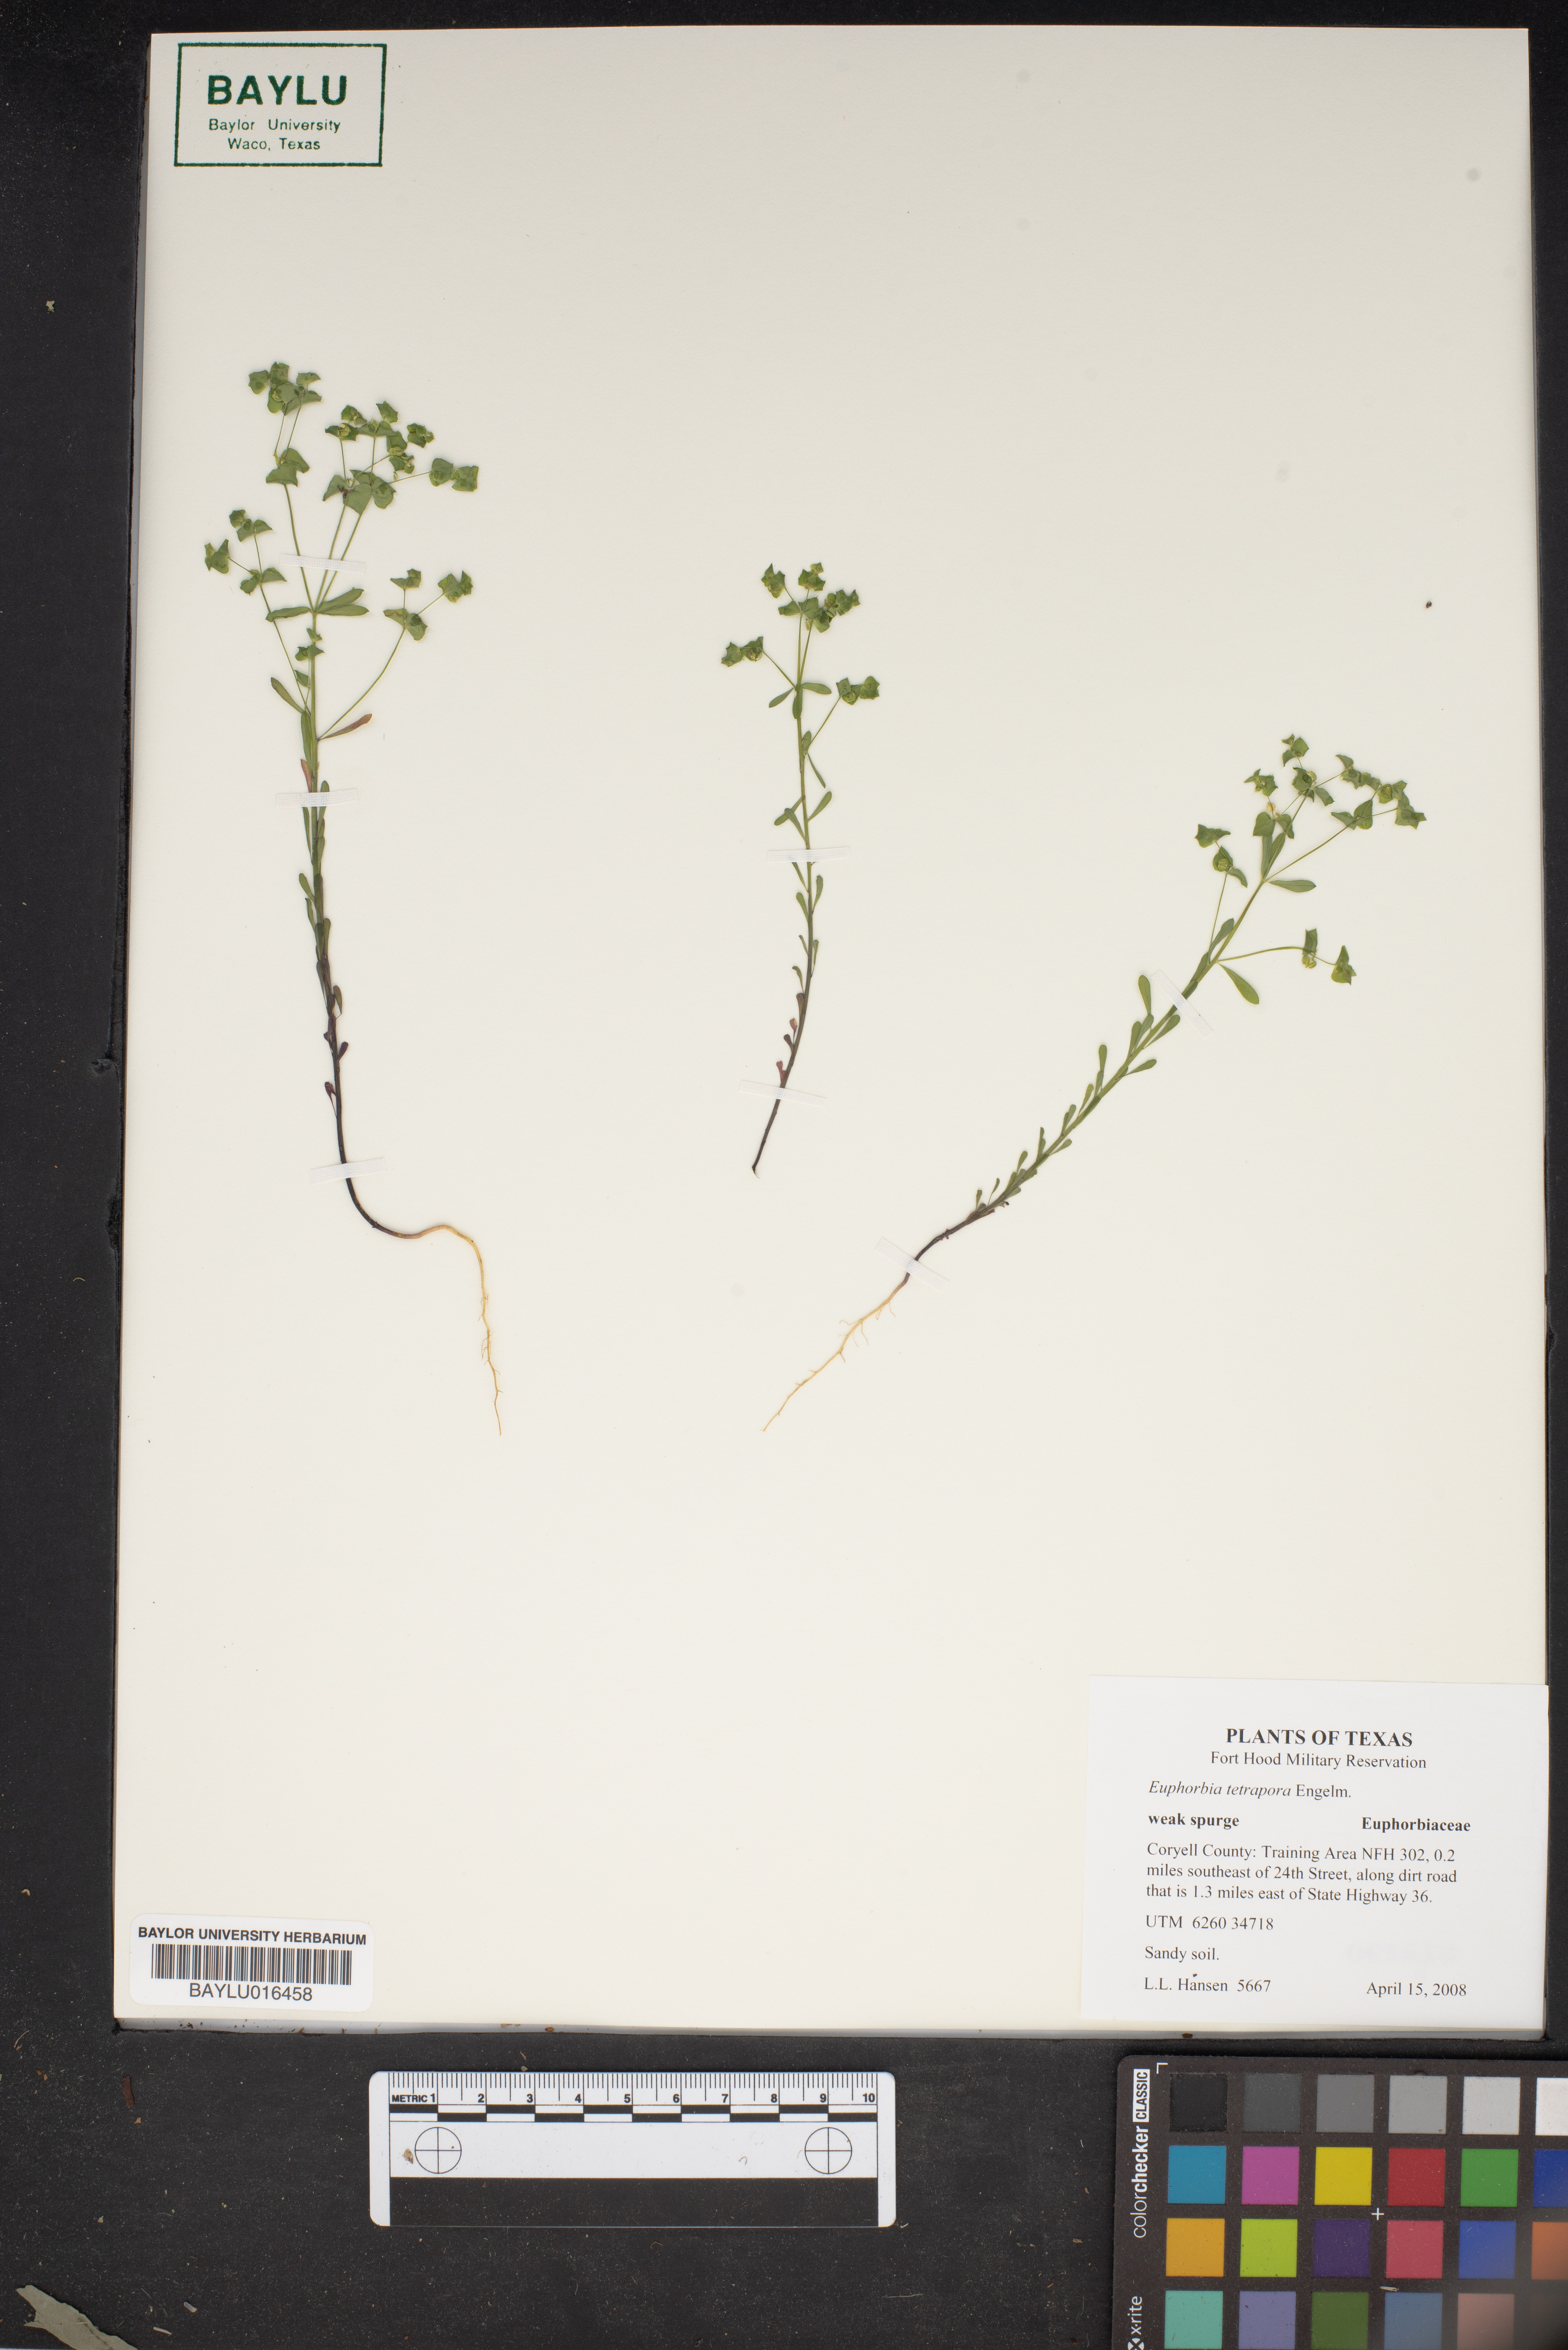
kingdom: Plantae
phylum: Tracheophyta
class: Magnoliopsida
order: Malpighiales
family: Euphorbiaceae
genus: Euphorbia
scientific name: Euphorbia tetrapora
